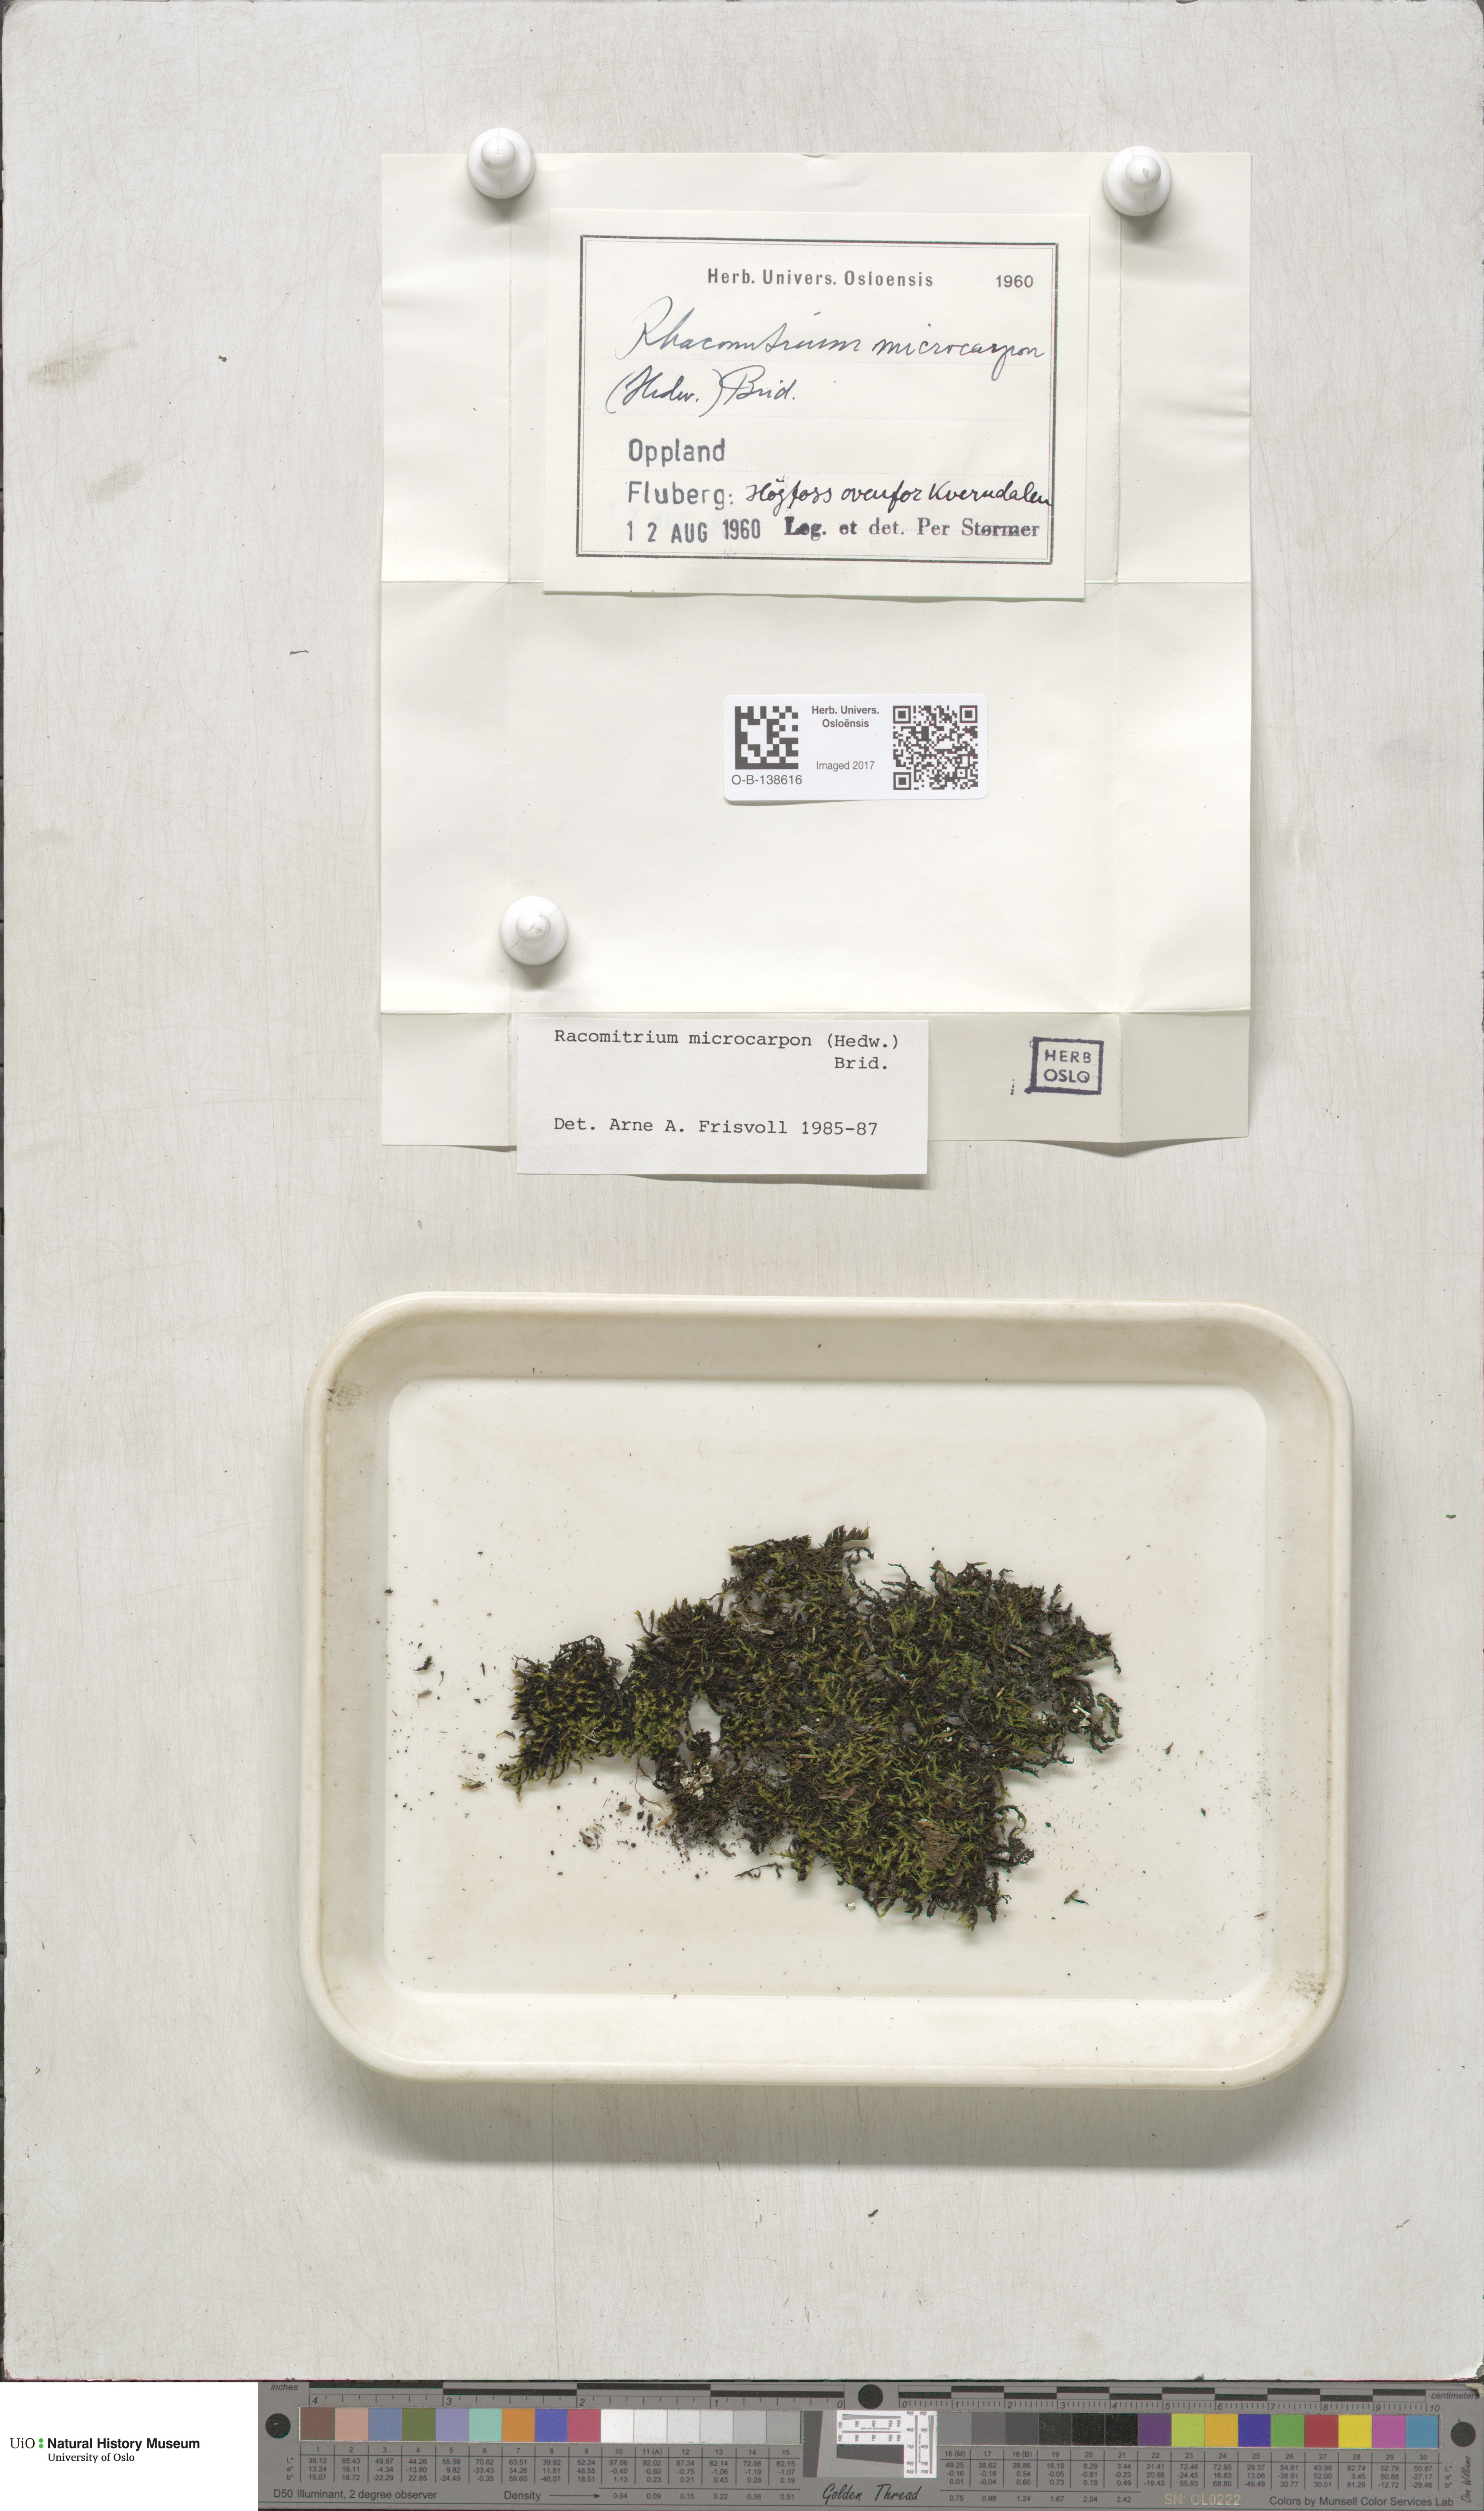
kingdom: Plantae
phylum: Bryophyta
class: Bryopsida
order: Grimmiales
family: Grimmiaceae
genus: Bucklandiella
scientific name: Bucklandiella microcarpos
